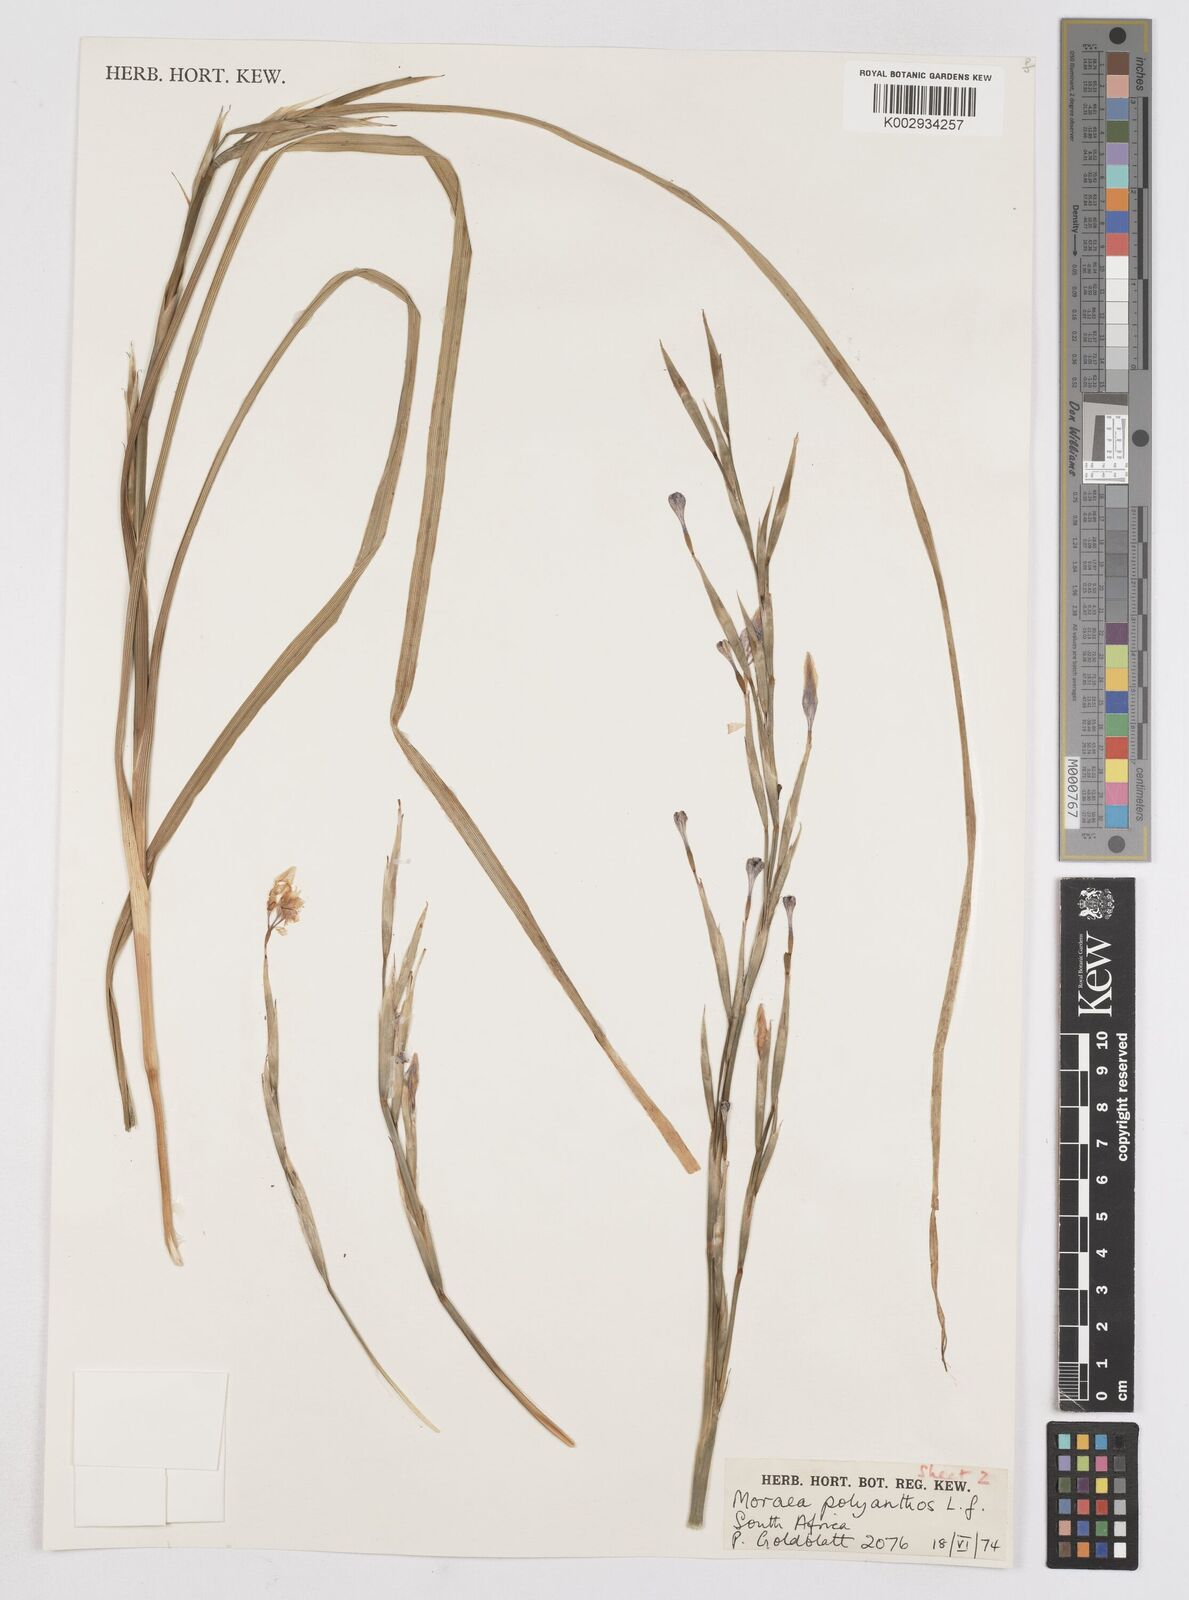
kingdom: Plantae
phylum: Tracheophyta
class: Liliopsida
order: Asparagales
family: Iridaceae
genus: Moraea
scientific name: Moraea bipartita
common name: Blue tulp
